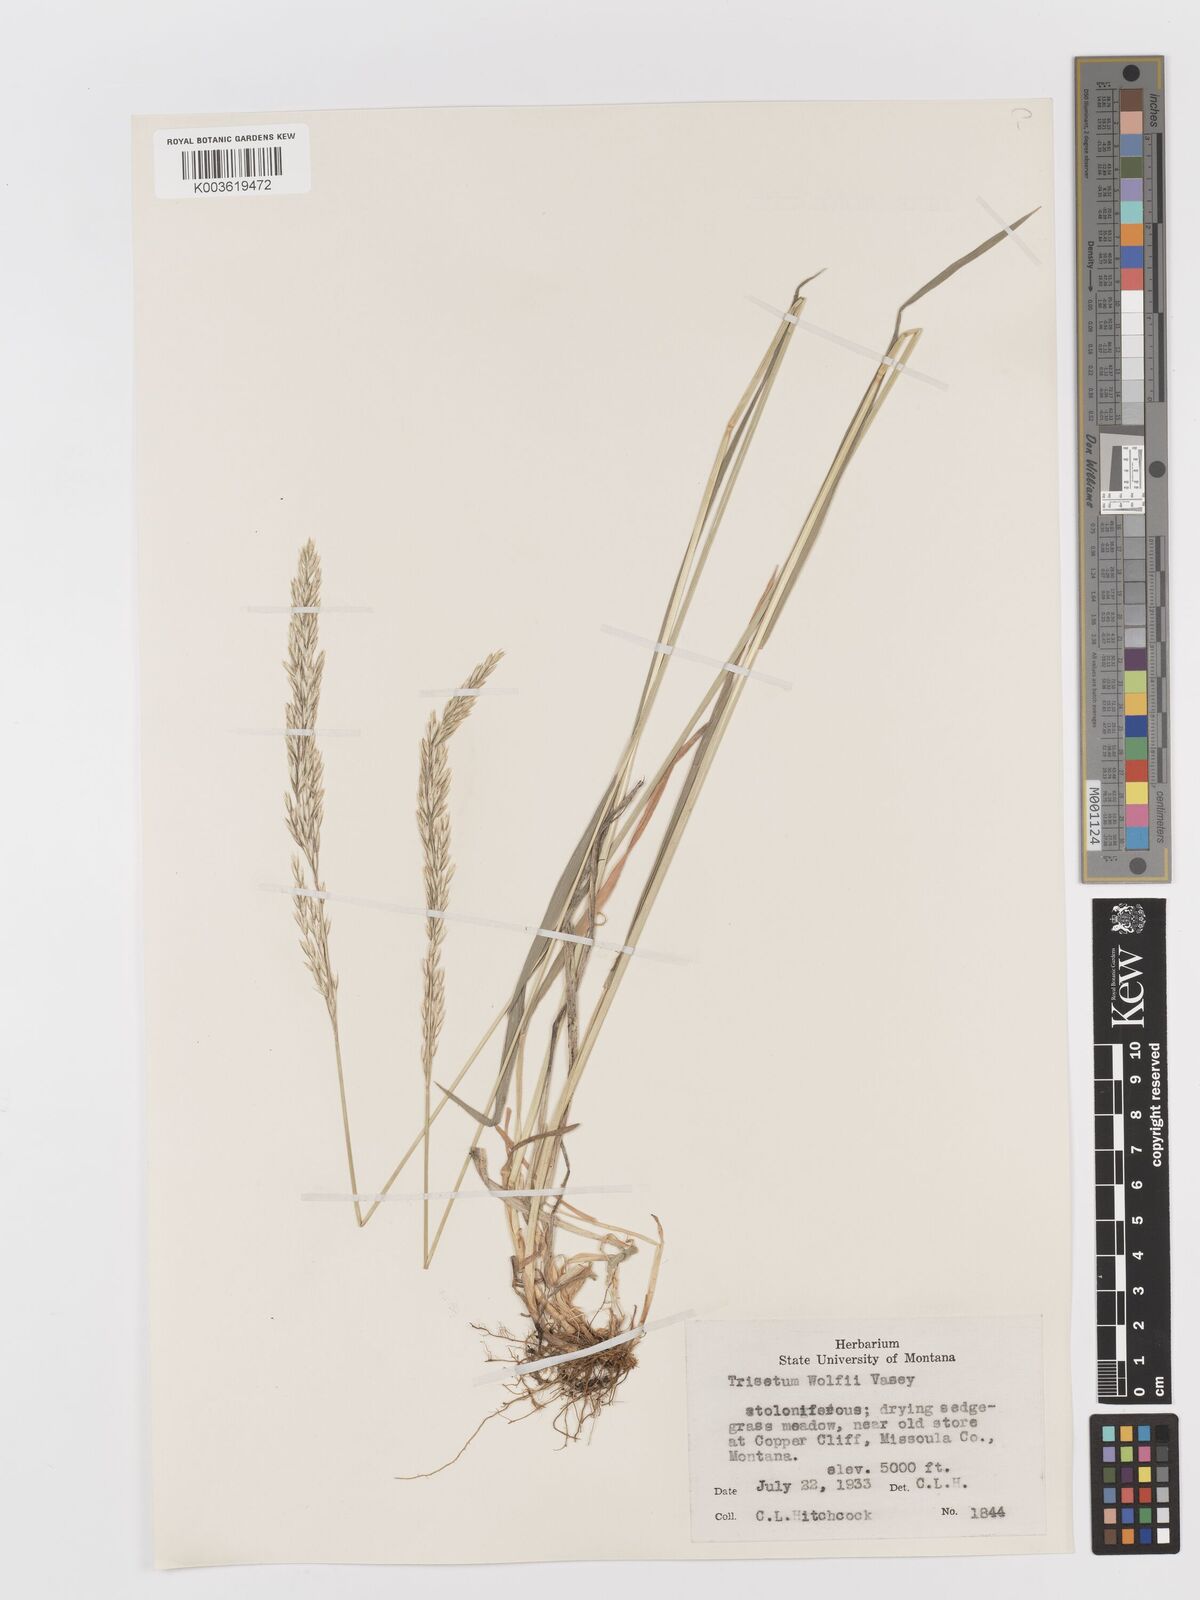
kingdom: Plantae
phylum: Tracheophyta
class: Liliopsida
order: Poales
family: Poaceae
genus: Graphephorum
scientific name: Graphephorum wolfii
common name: Wolf's trisetum
